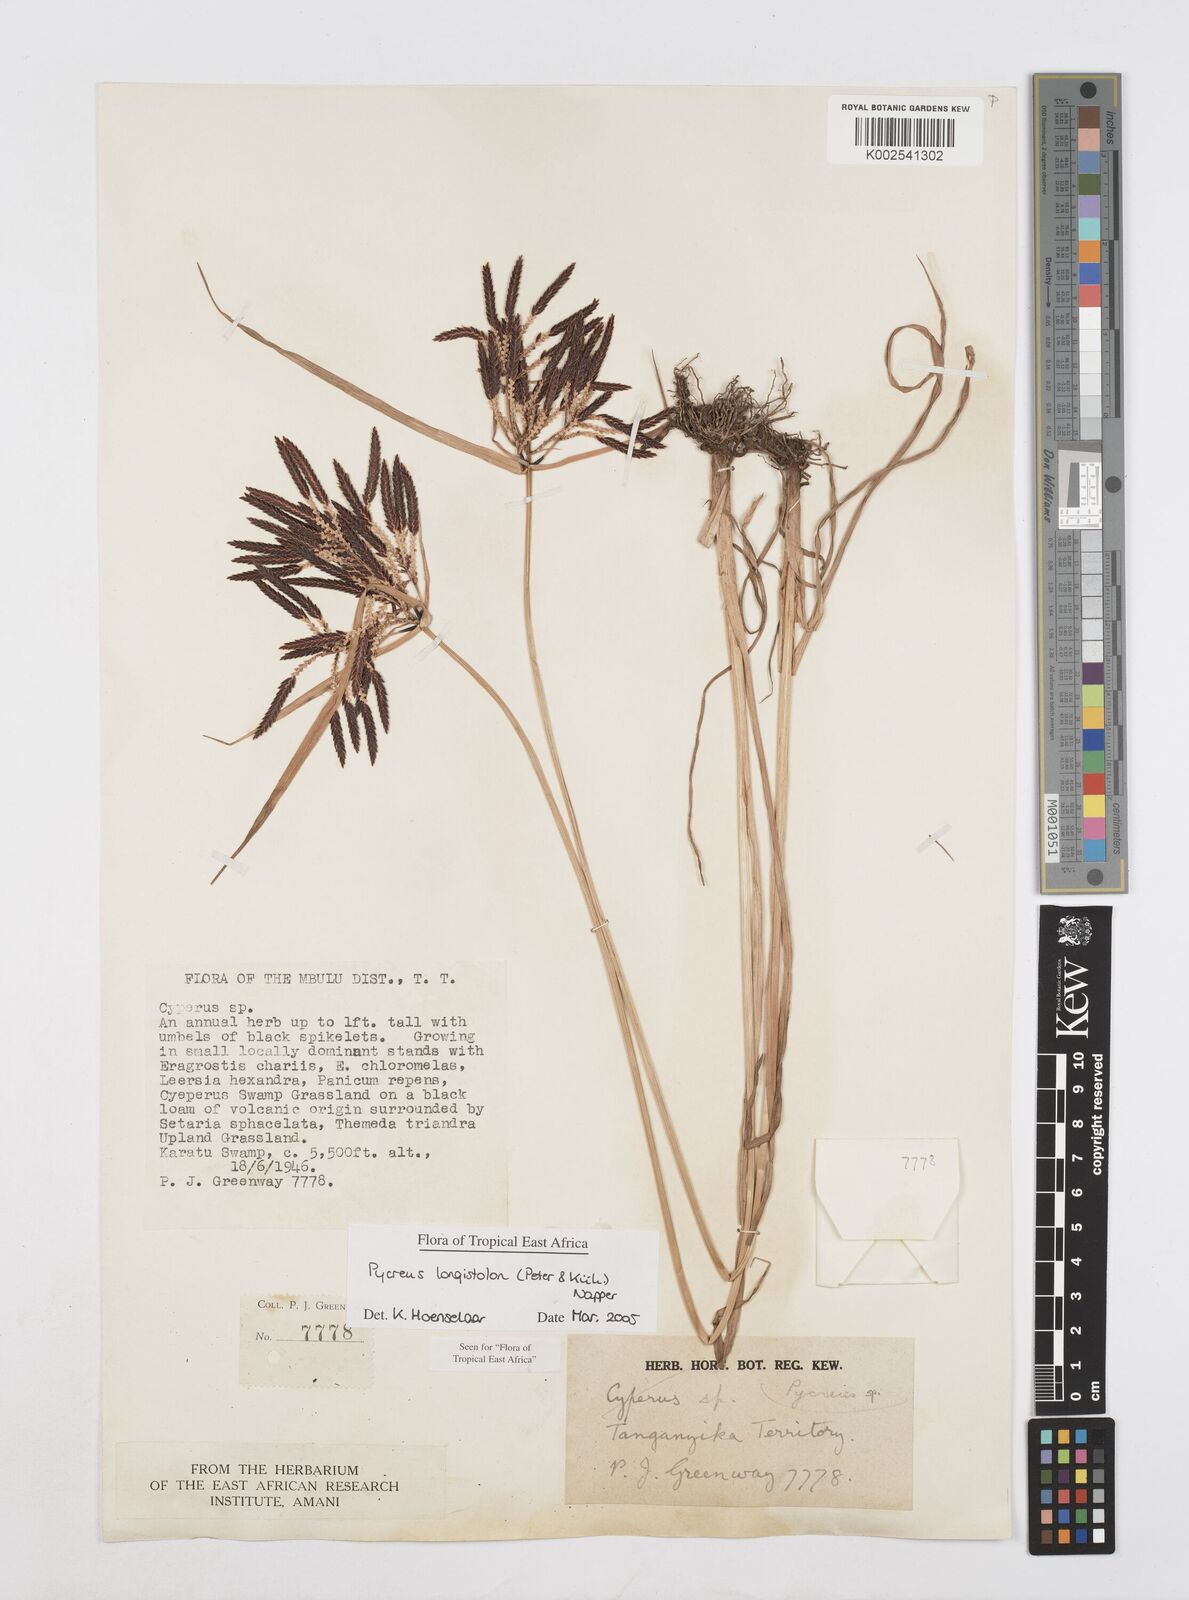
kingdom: Plantae
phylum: Tracheophyta
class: Liliopsida
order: Poales
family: Cyperaceae
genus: Cyperus
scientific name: Cyperus chrysanthus
